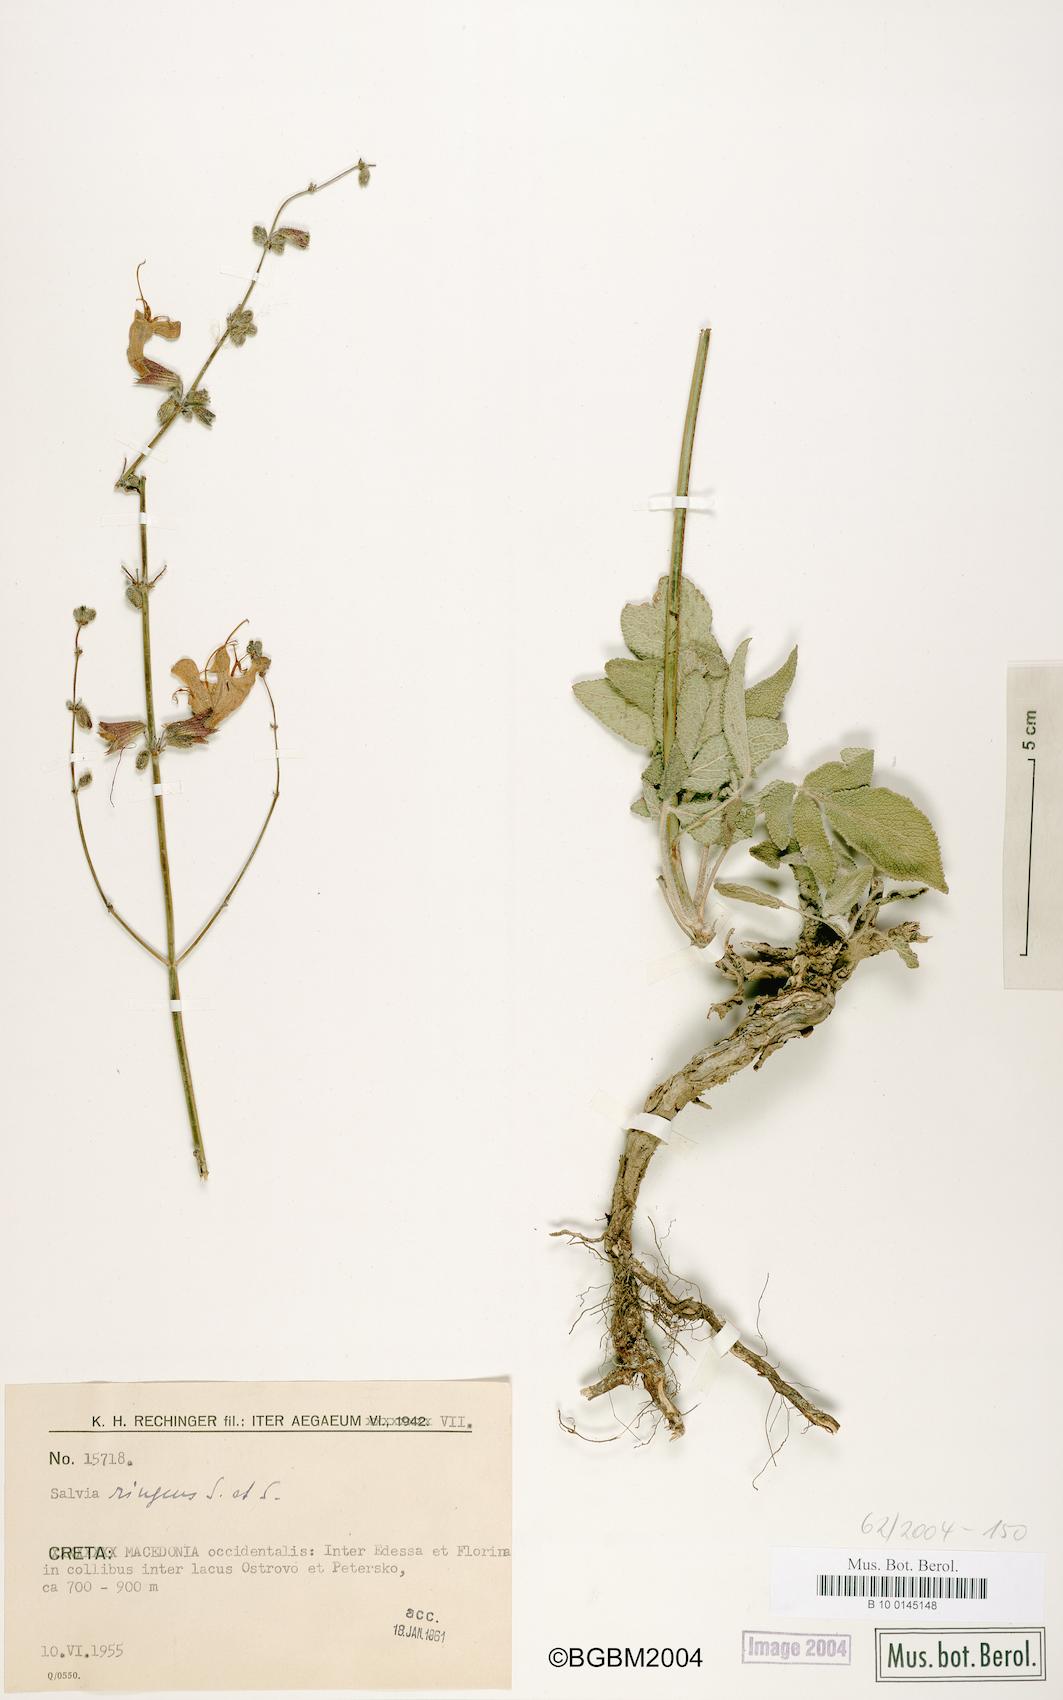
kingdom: Plantae
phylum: Tracheophyta
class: Magnoliopsida
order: Lamiales
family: Lamiaceae
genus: Salvia
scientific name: Salvia ringens
